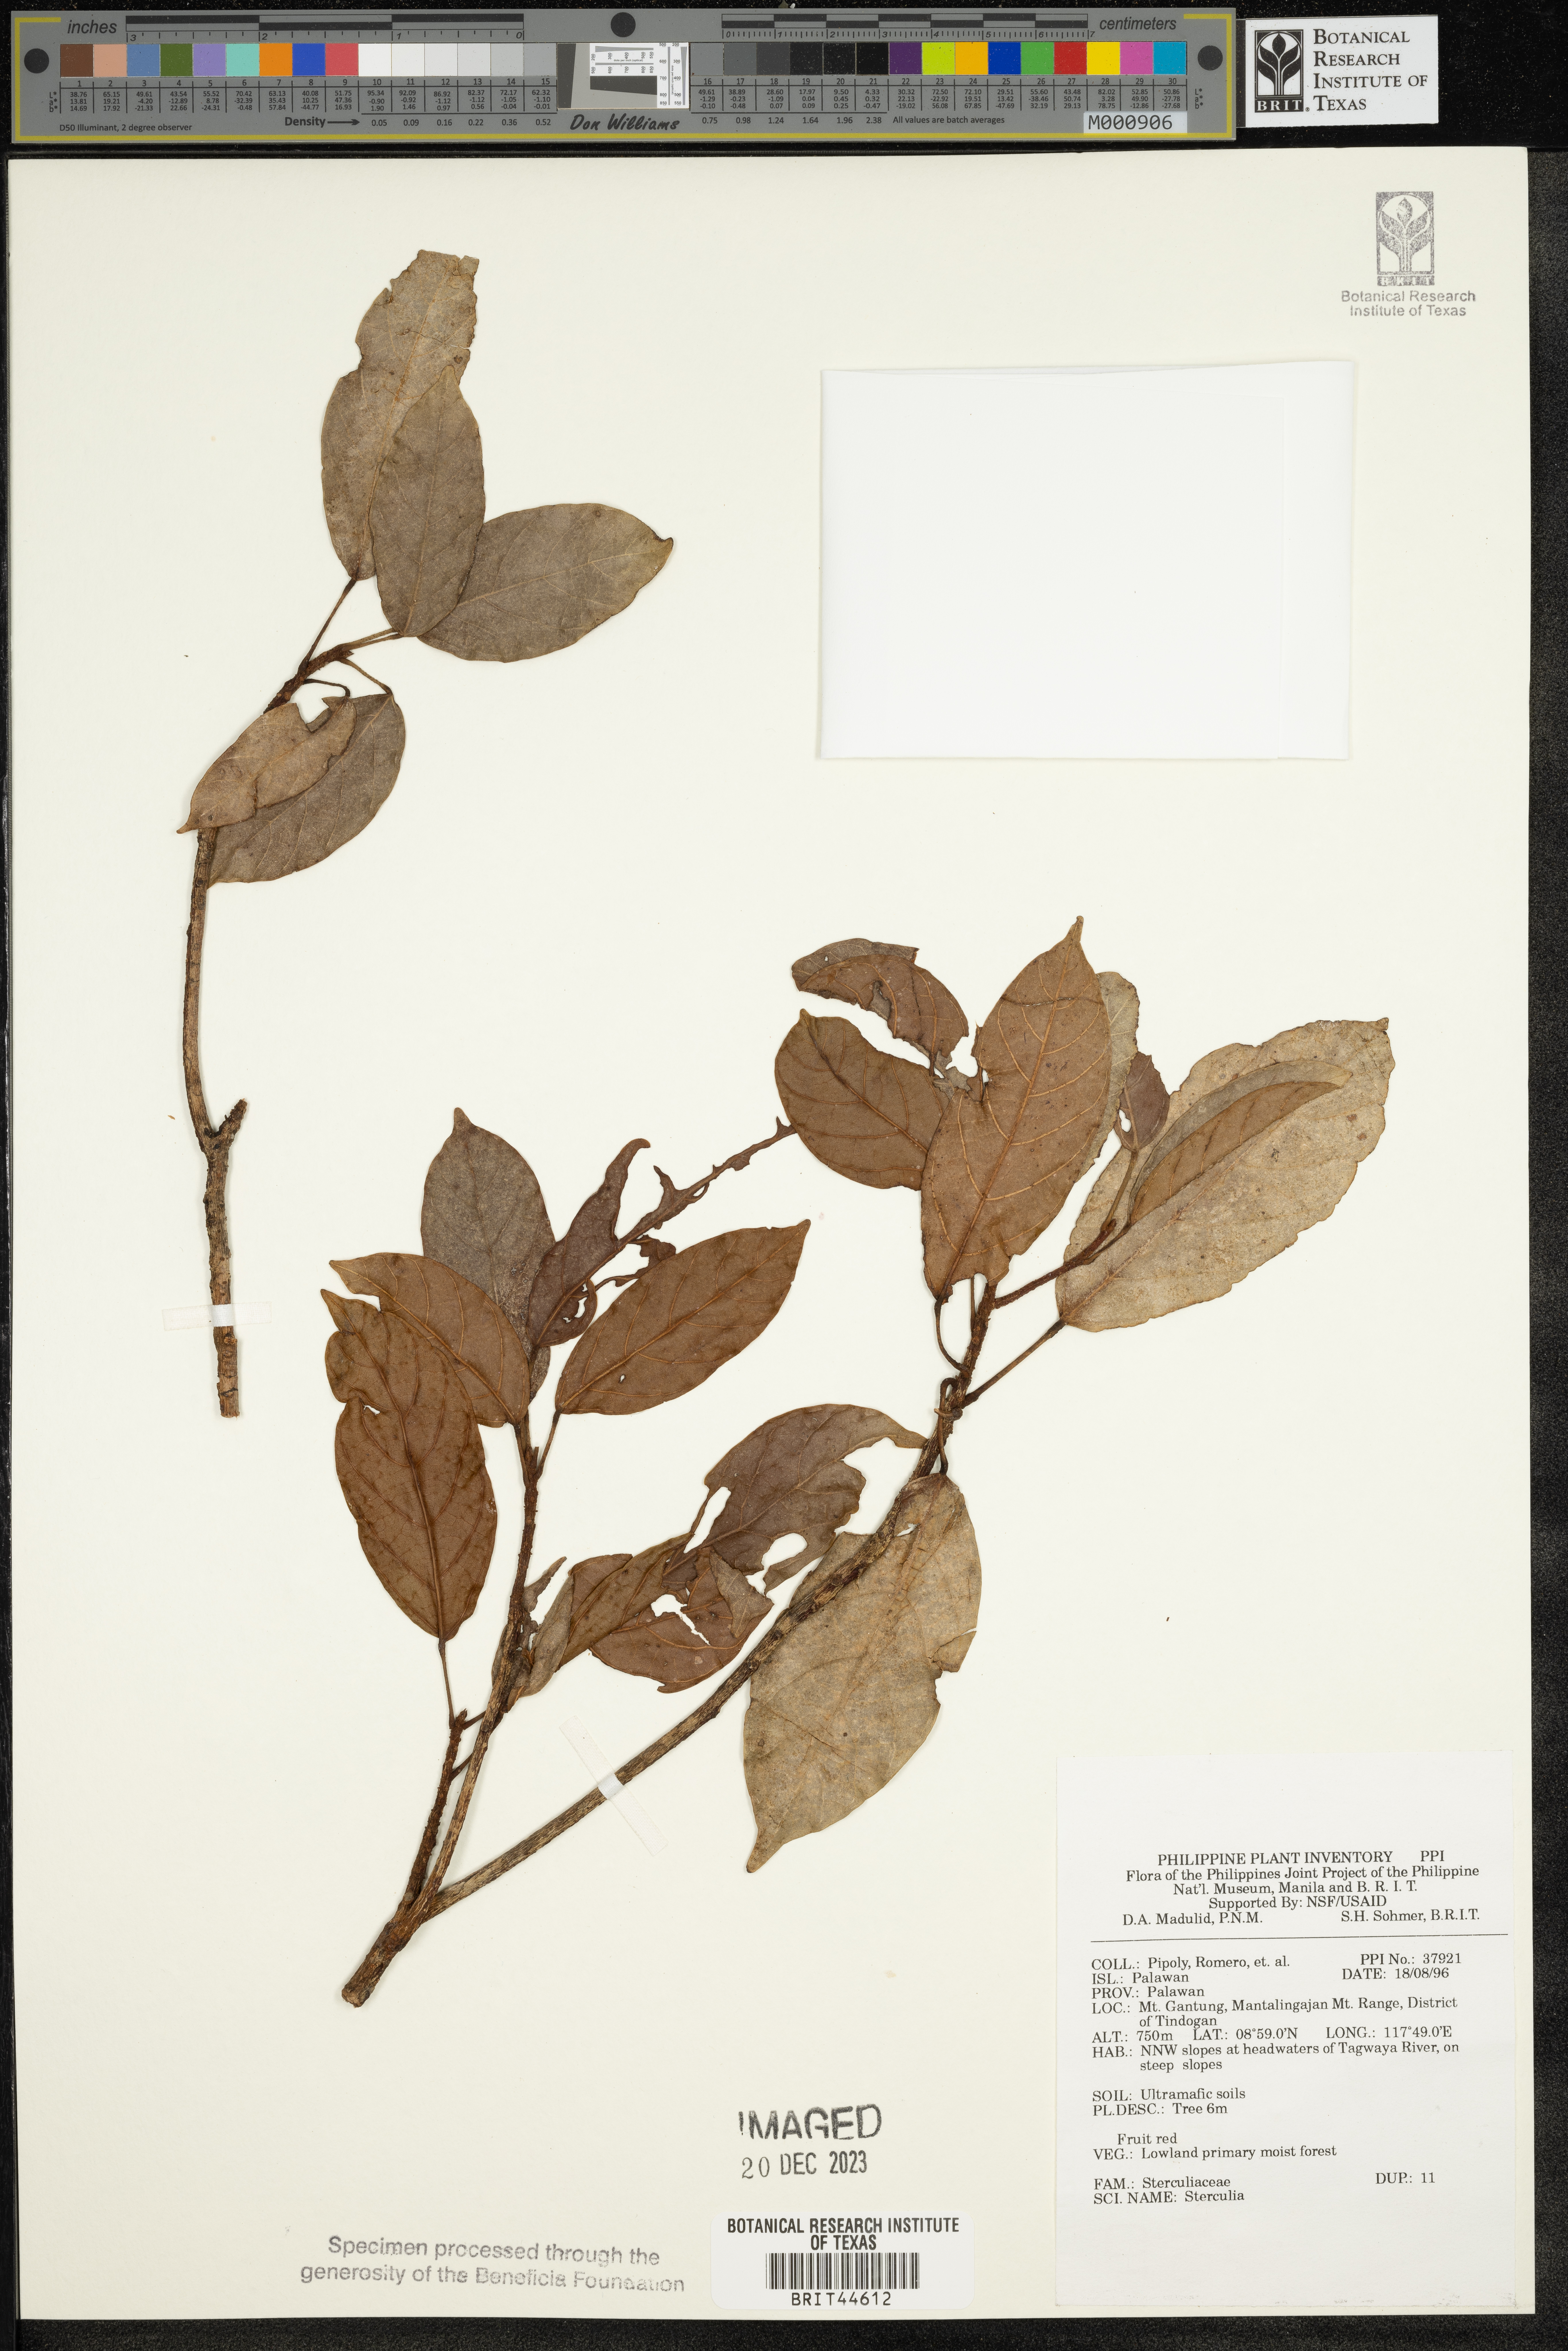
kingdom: Plantae
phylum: Tracheophyta
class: Magnoliopsida
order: Malvales
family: Malvaceae
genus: Sterculia
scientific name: Sterculia
